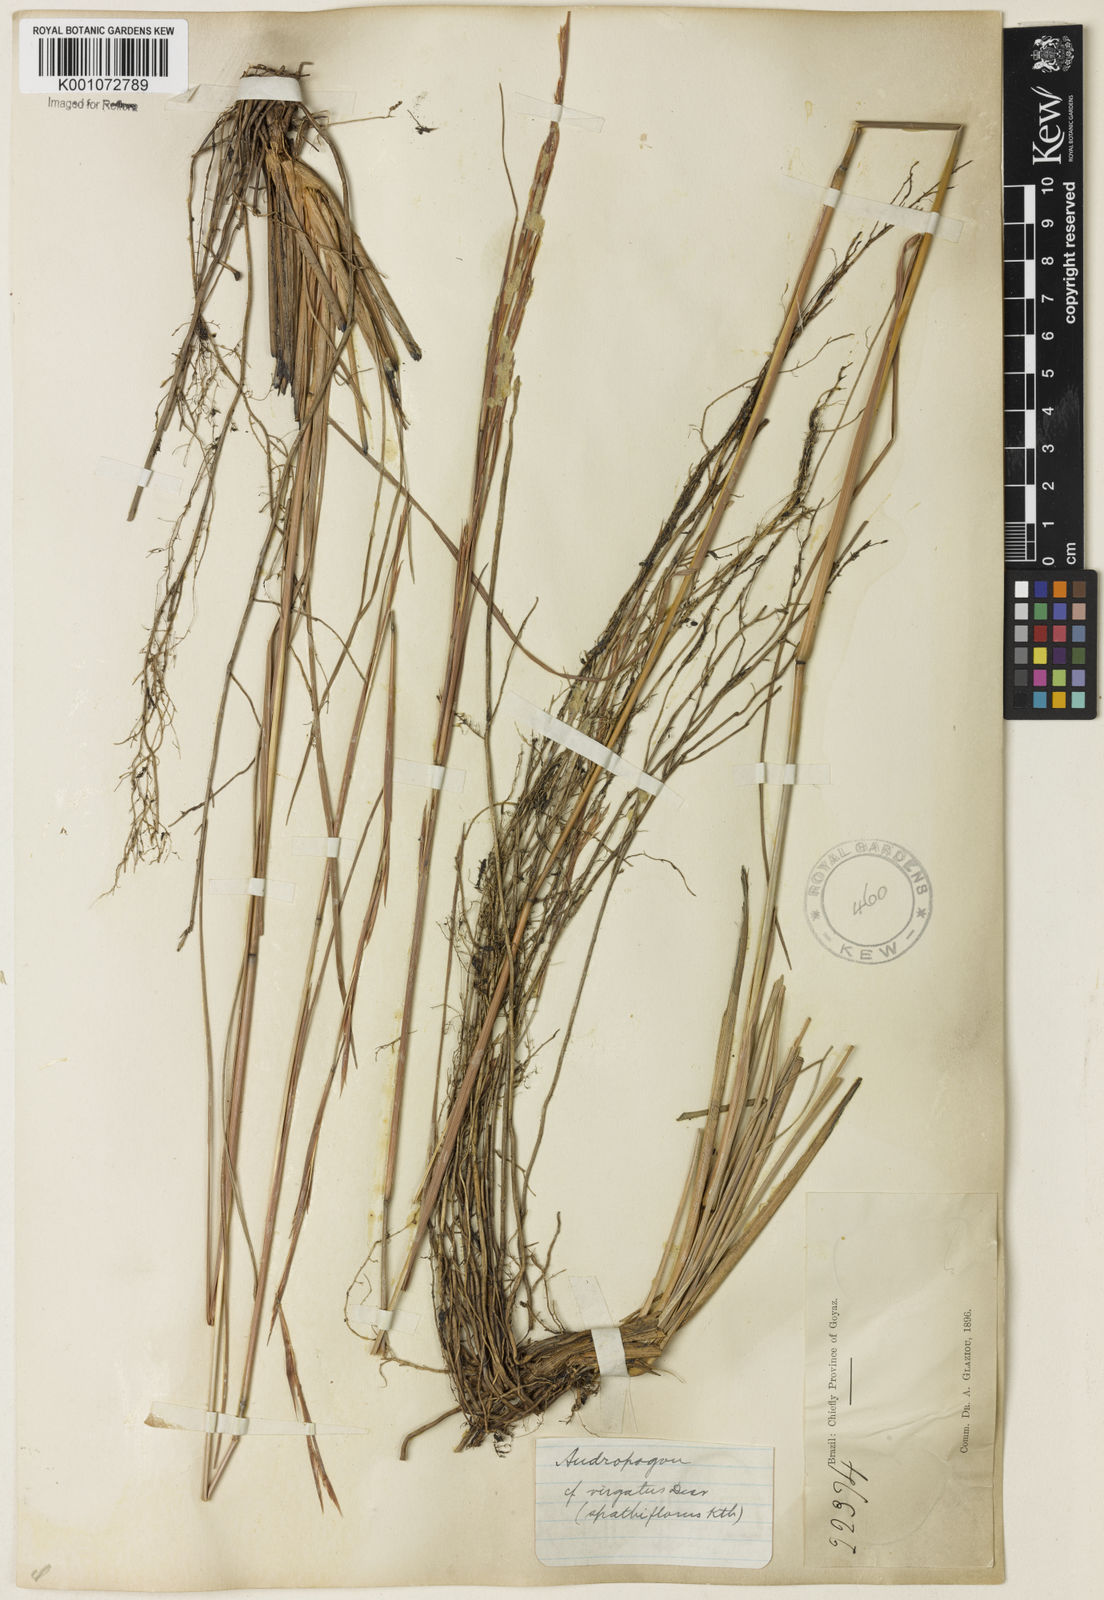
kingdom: Plantae
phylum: Tracheophyta
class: Liliopsida
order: Poales
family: Poaceae
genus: Andropogon
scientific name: Andropogon virgatus
